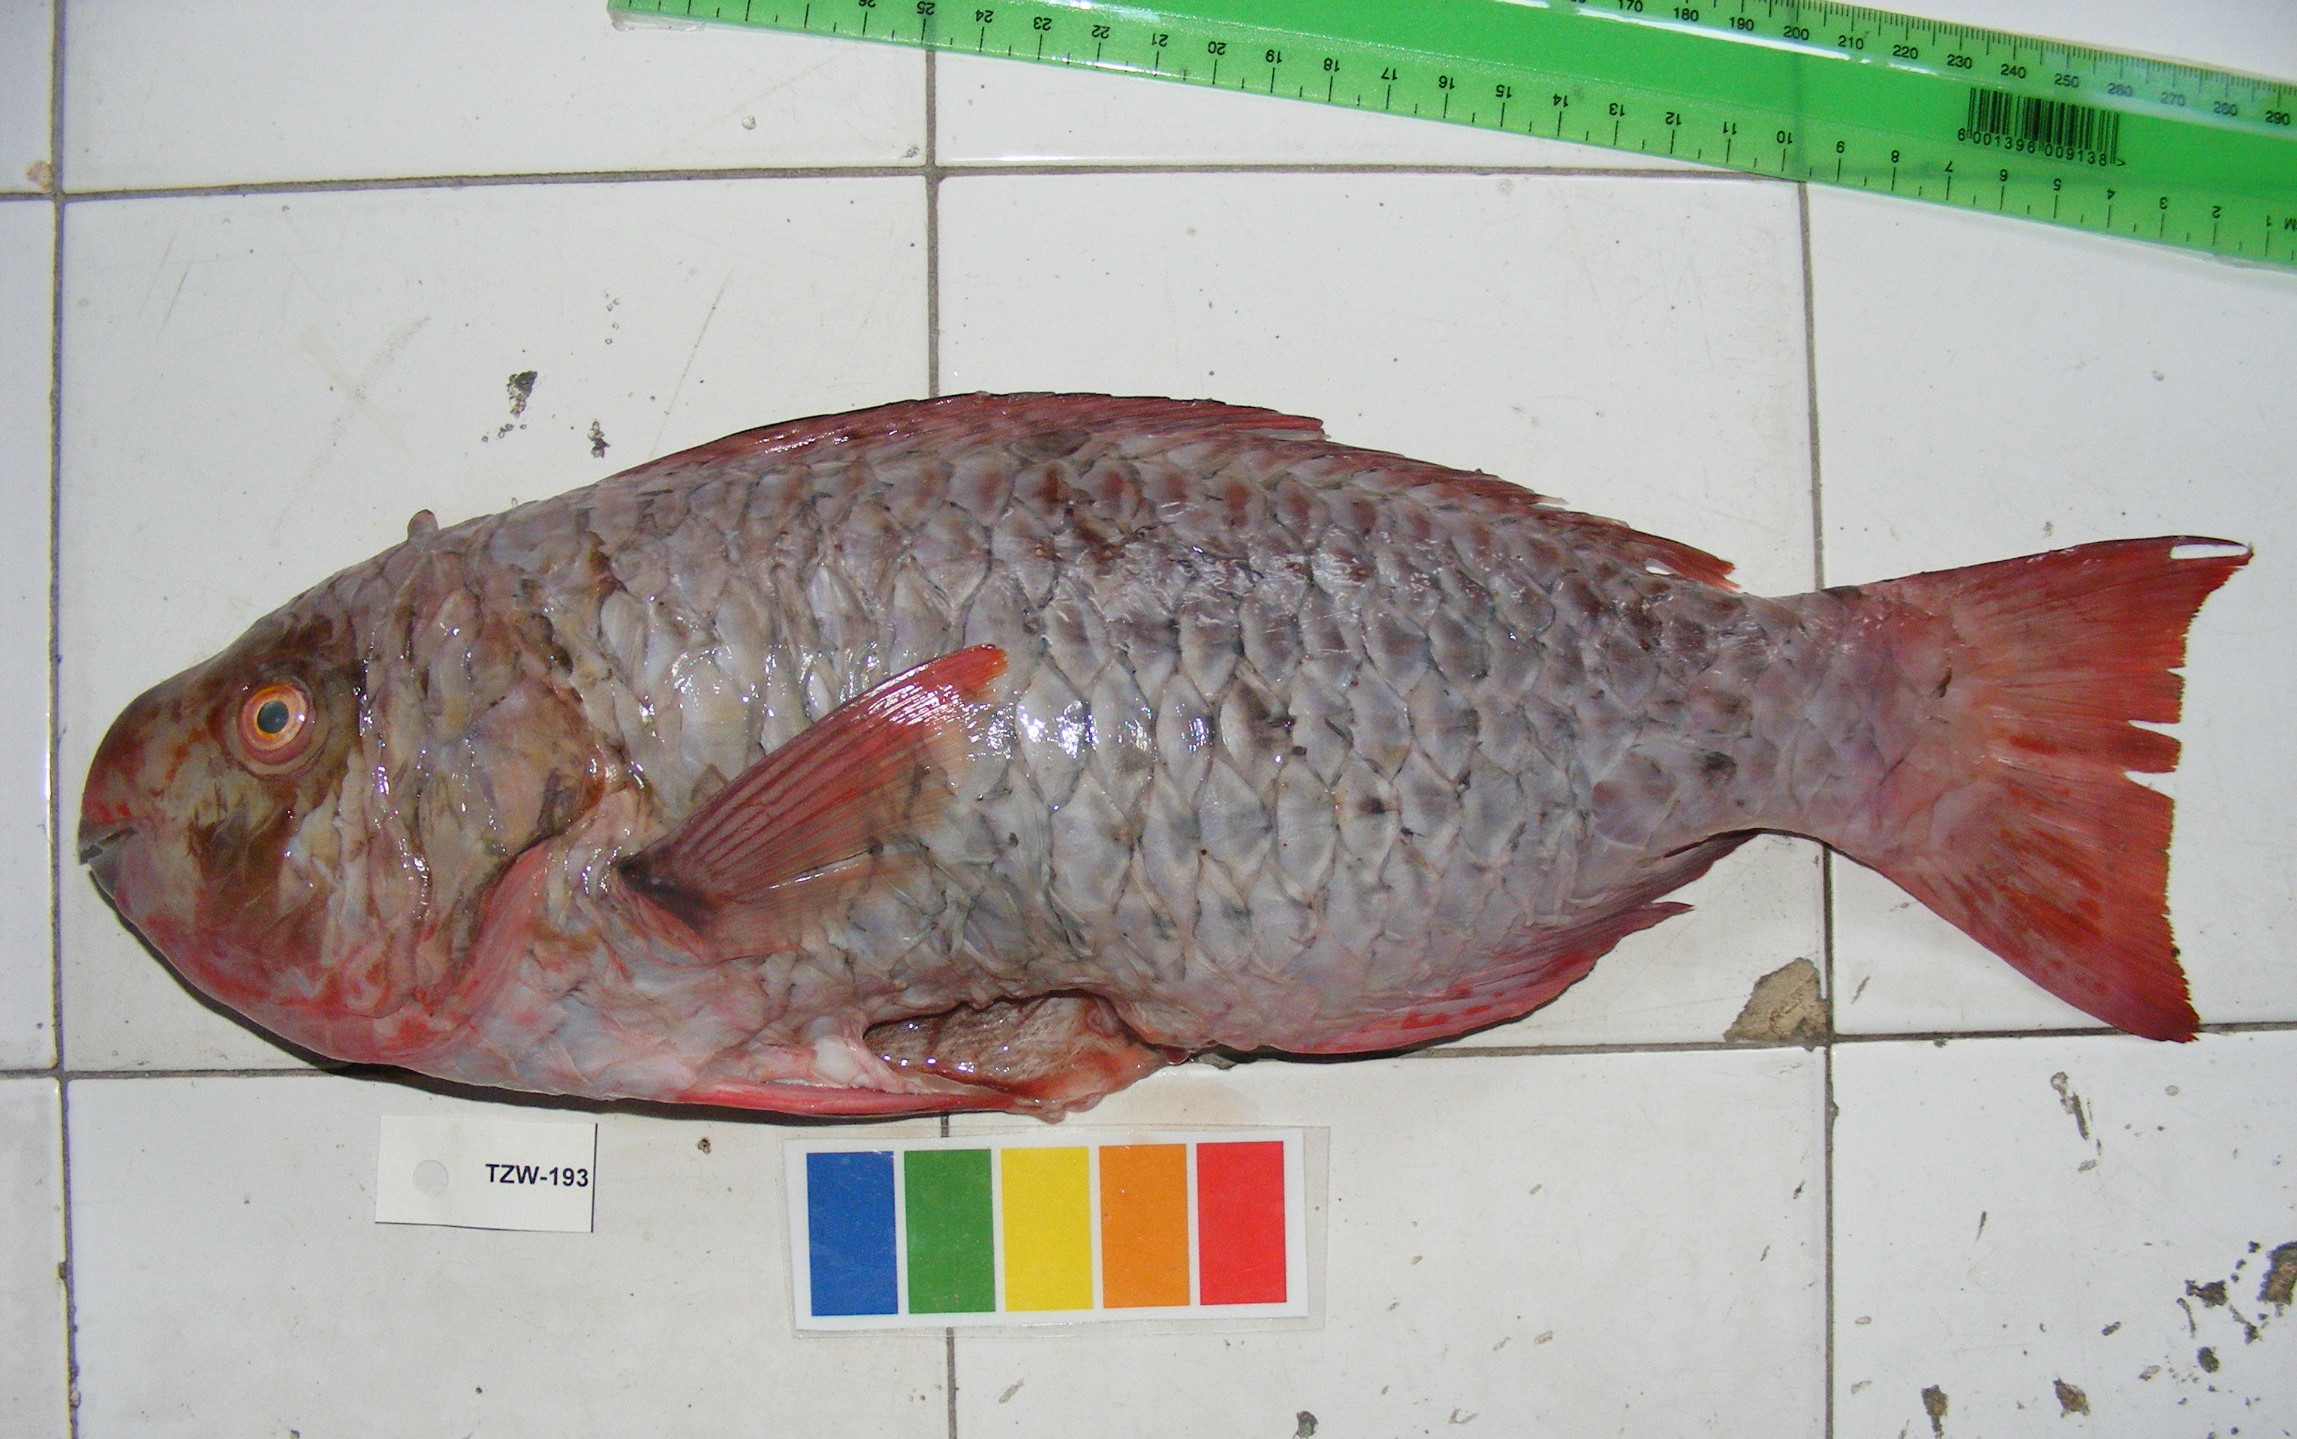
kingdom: Animalia
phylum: Chordata
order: Perciformes
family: Scaridae
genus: Scarus
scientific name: Scarus rubroviolaceus
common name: Ember parrotfish
